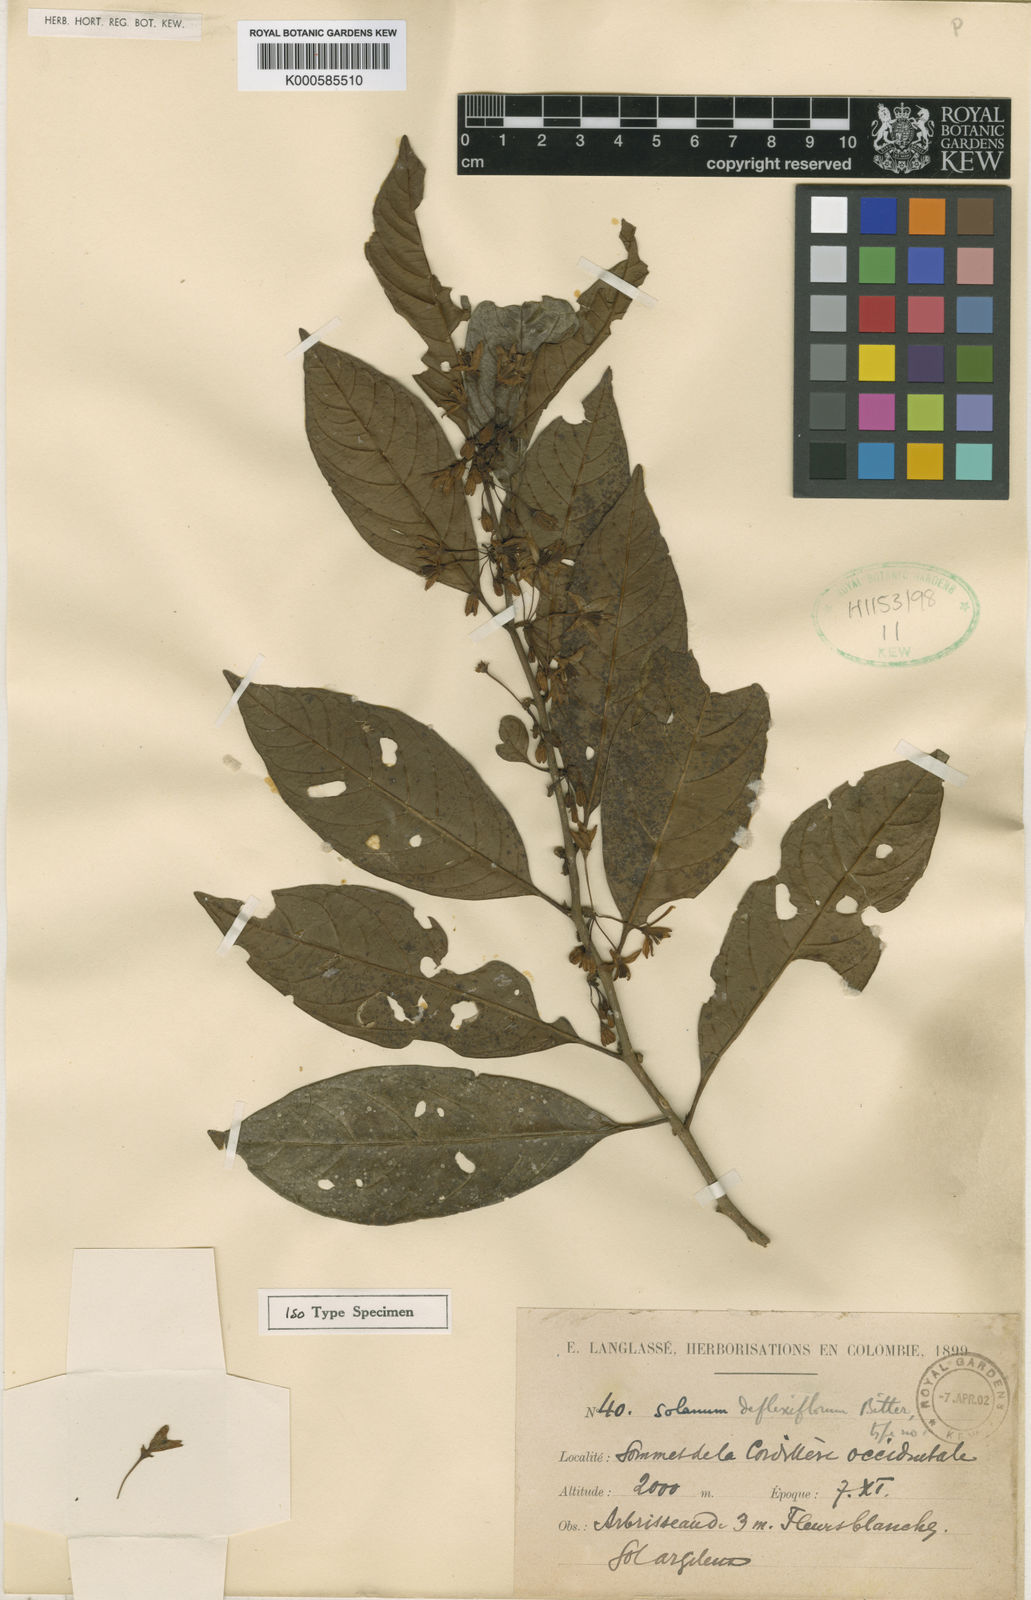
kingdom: Plantae
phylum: Tracheophyta
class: Magnoliopsida
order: Solanales
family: Solanaceae
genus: Solanum
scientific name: Solanum deflexiflorum
